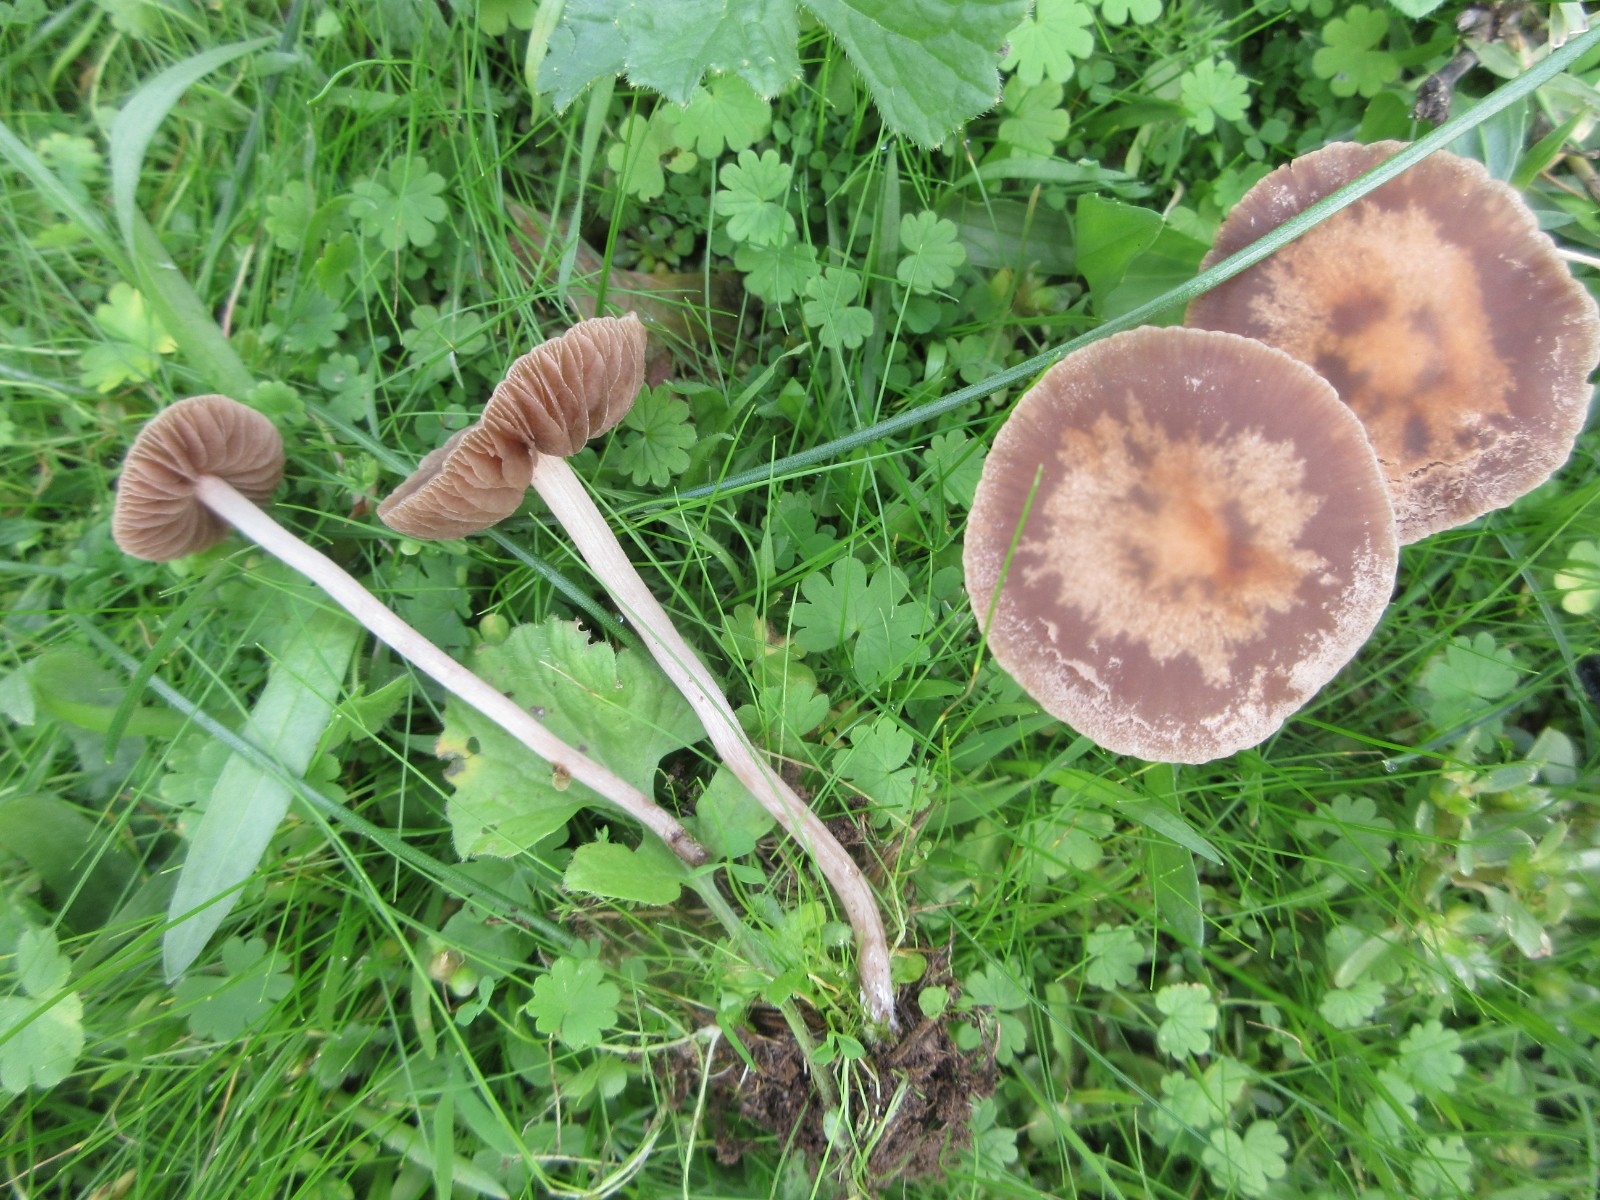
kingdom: Fungi
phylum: Basidiomycota
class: Agaricomycetes
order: Agaricales
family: Bolbitiaceae
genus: Panaeolina
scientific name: Panaeolina foenisecii
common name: høslætsvamp
